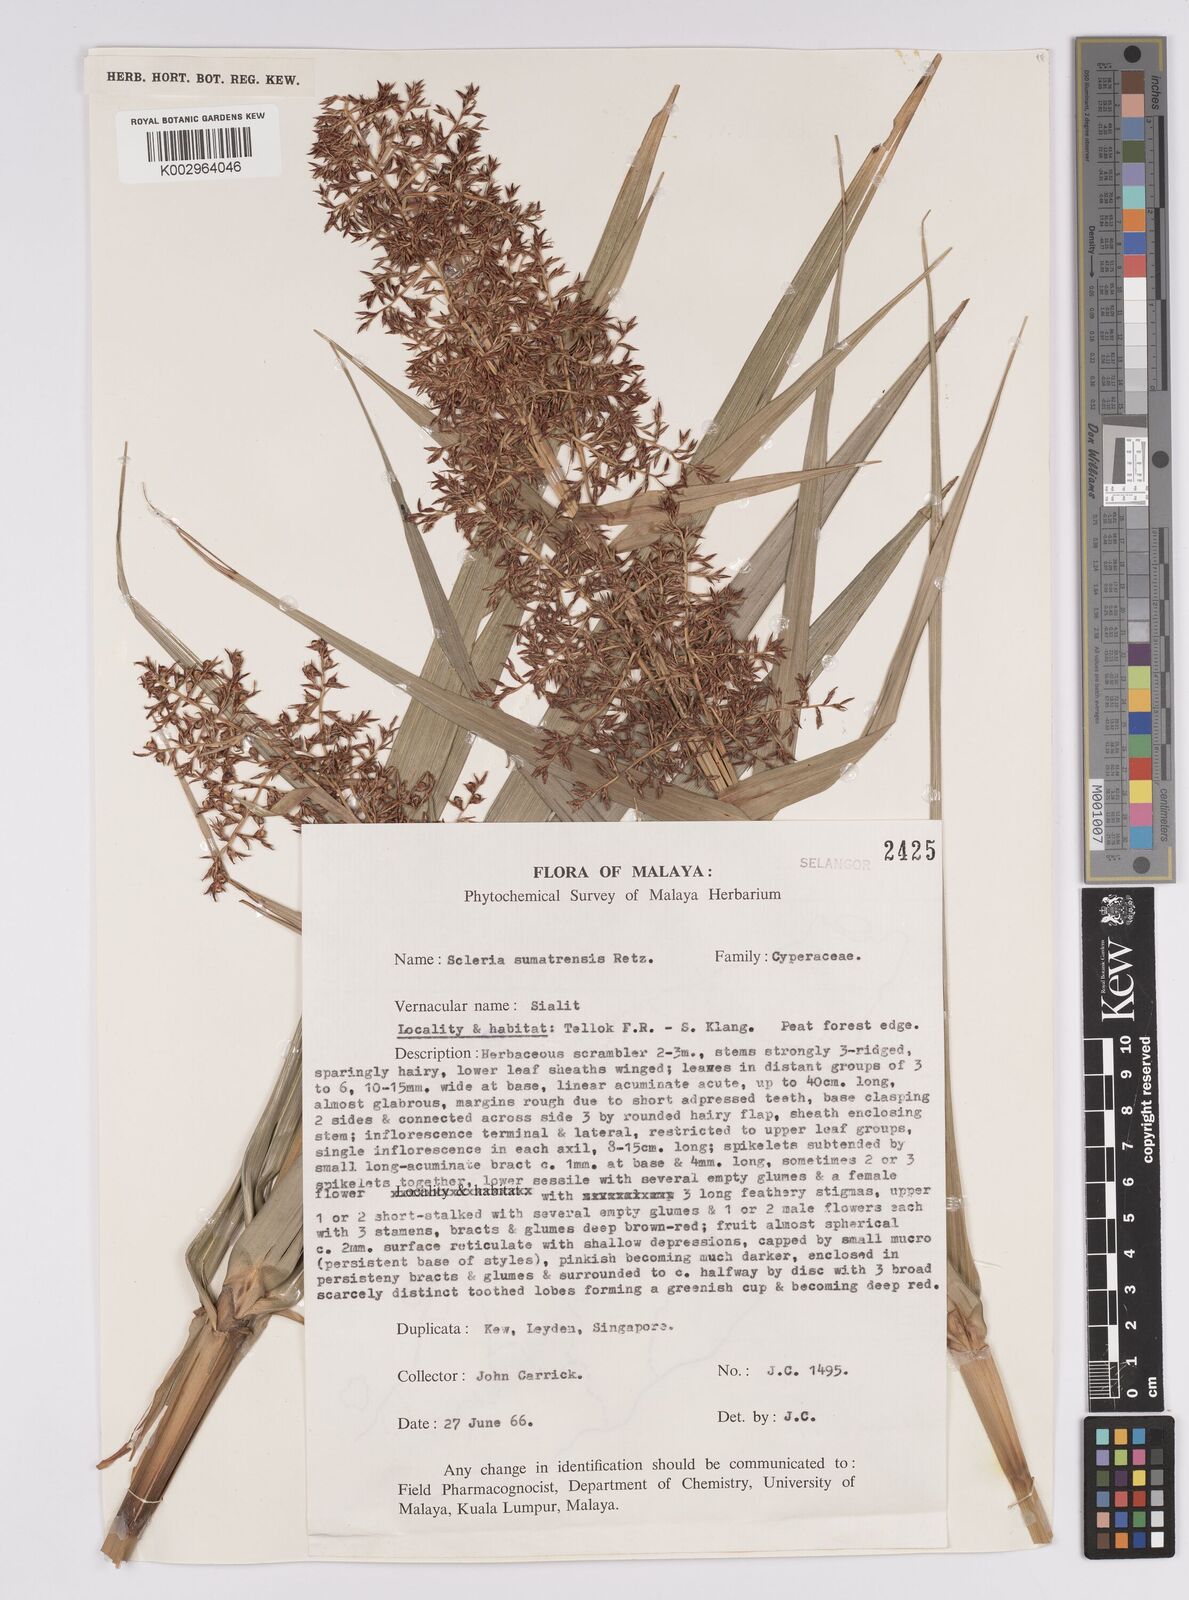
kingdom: Plantae
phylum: Tracheophyta
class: Liliopsida
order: Poales
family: Cyperaceae
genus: Scleria
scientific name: Scleria sumatrensis
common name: Sumatran scleria
